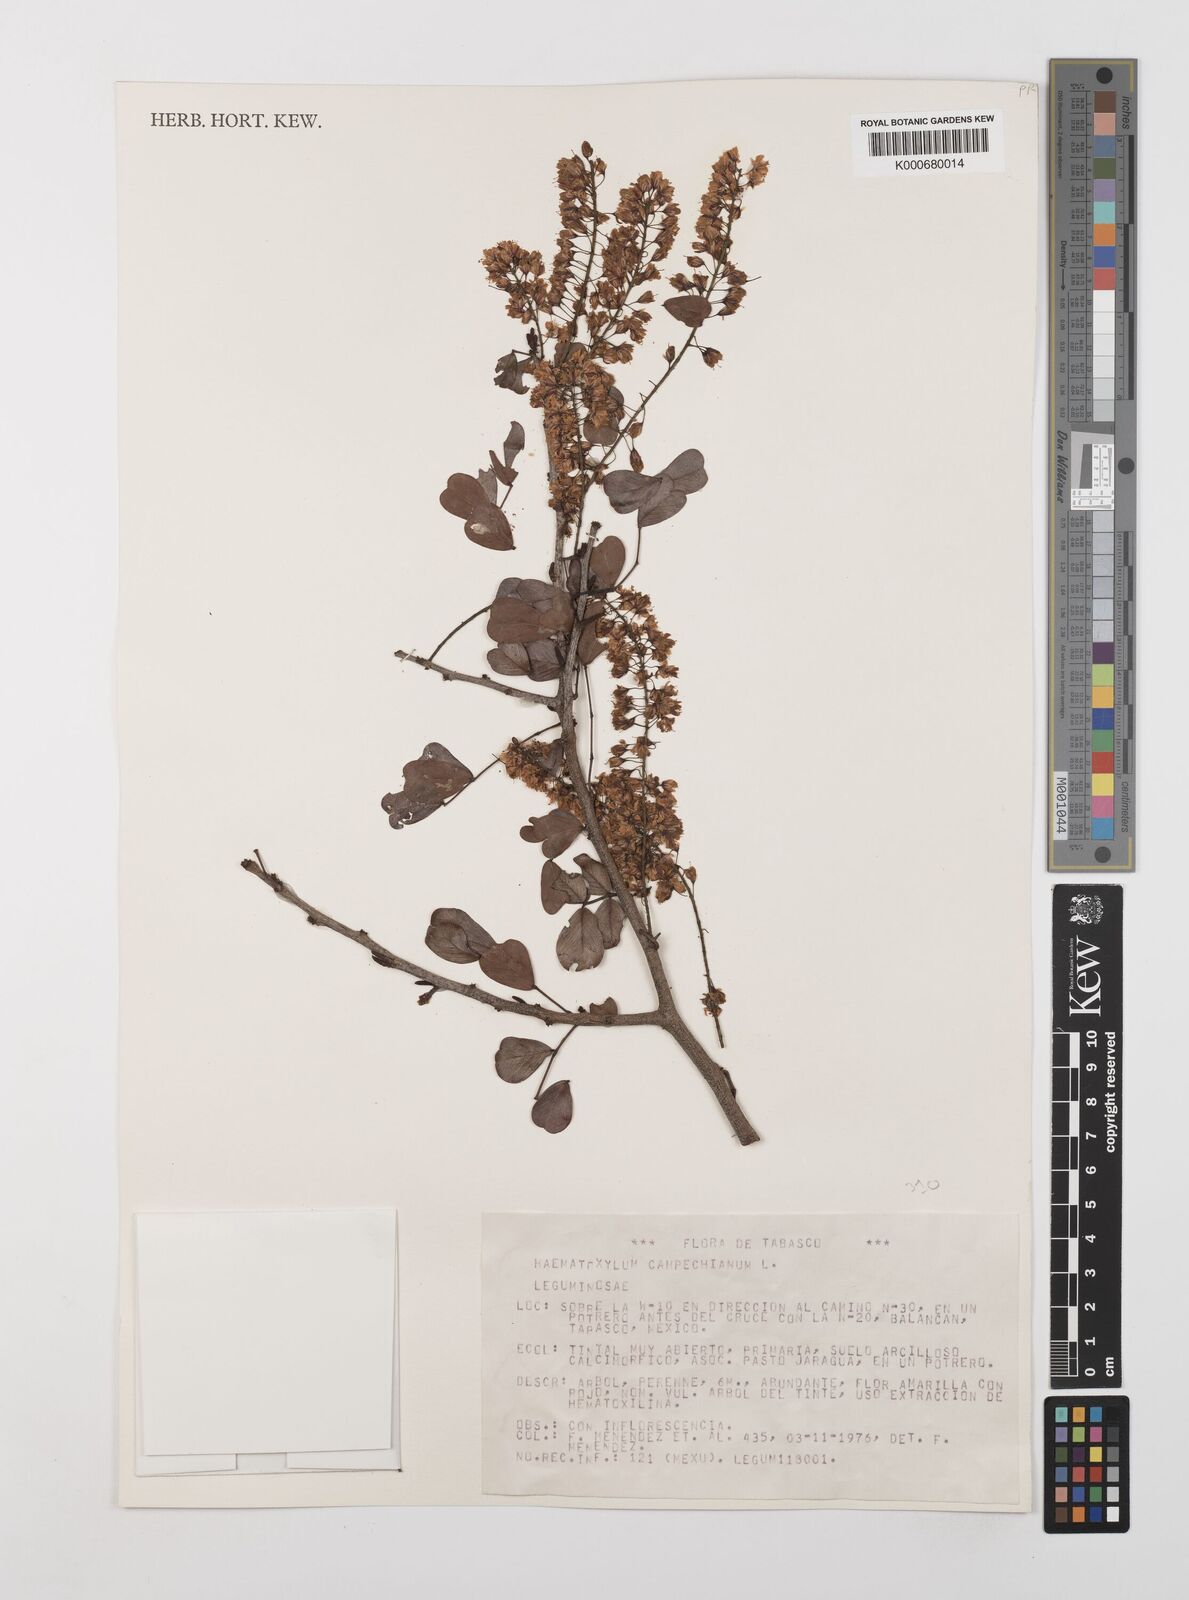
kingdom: Plantae
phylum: Tracheophyta
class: Magnoliopsida
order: Fabales
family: Fabaceae
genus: Haematoxylum
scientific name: Haematoxylum
